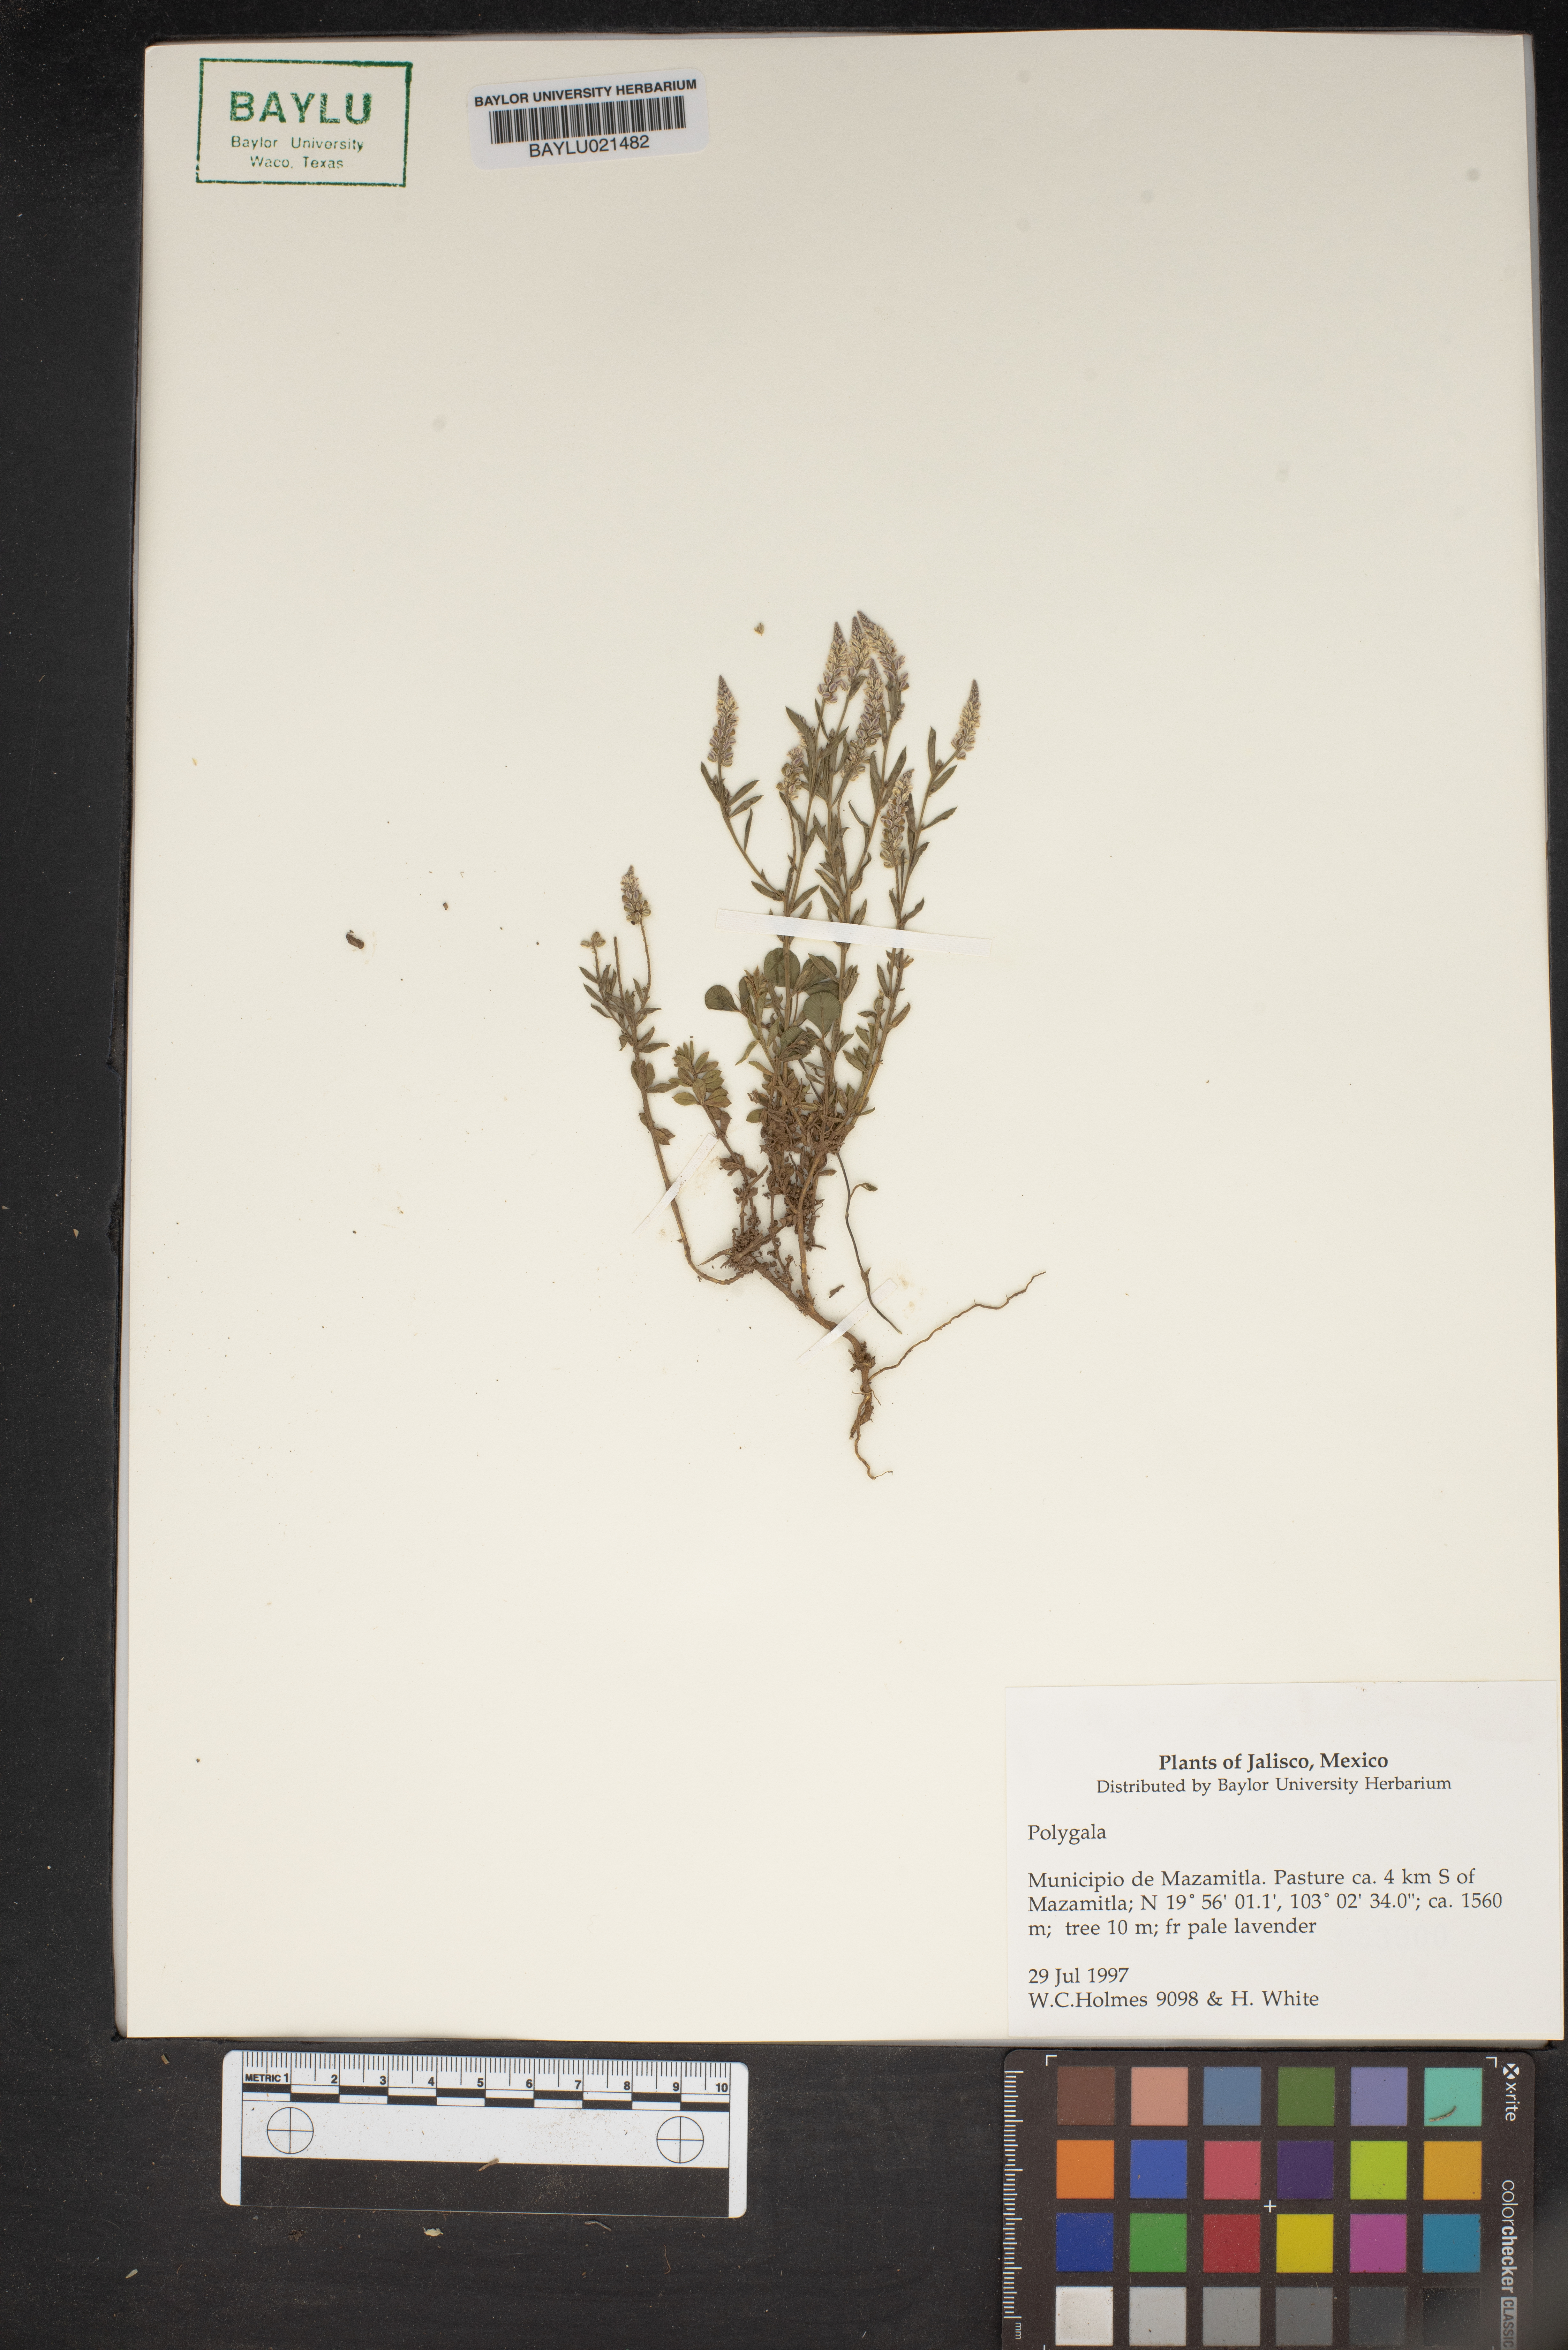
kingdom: Plantae
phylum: Tracheophyta
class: Magnoliopsida
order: Fabales
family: Polygalaceae
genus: Polygala
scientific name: Polygala
